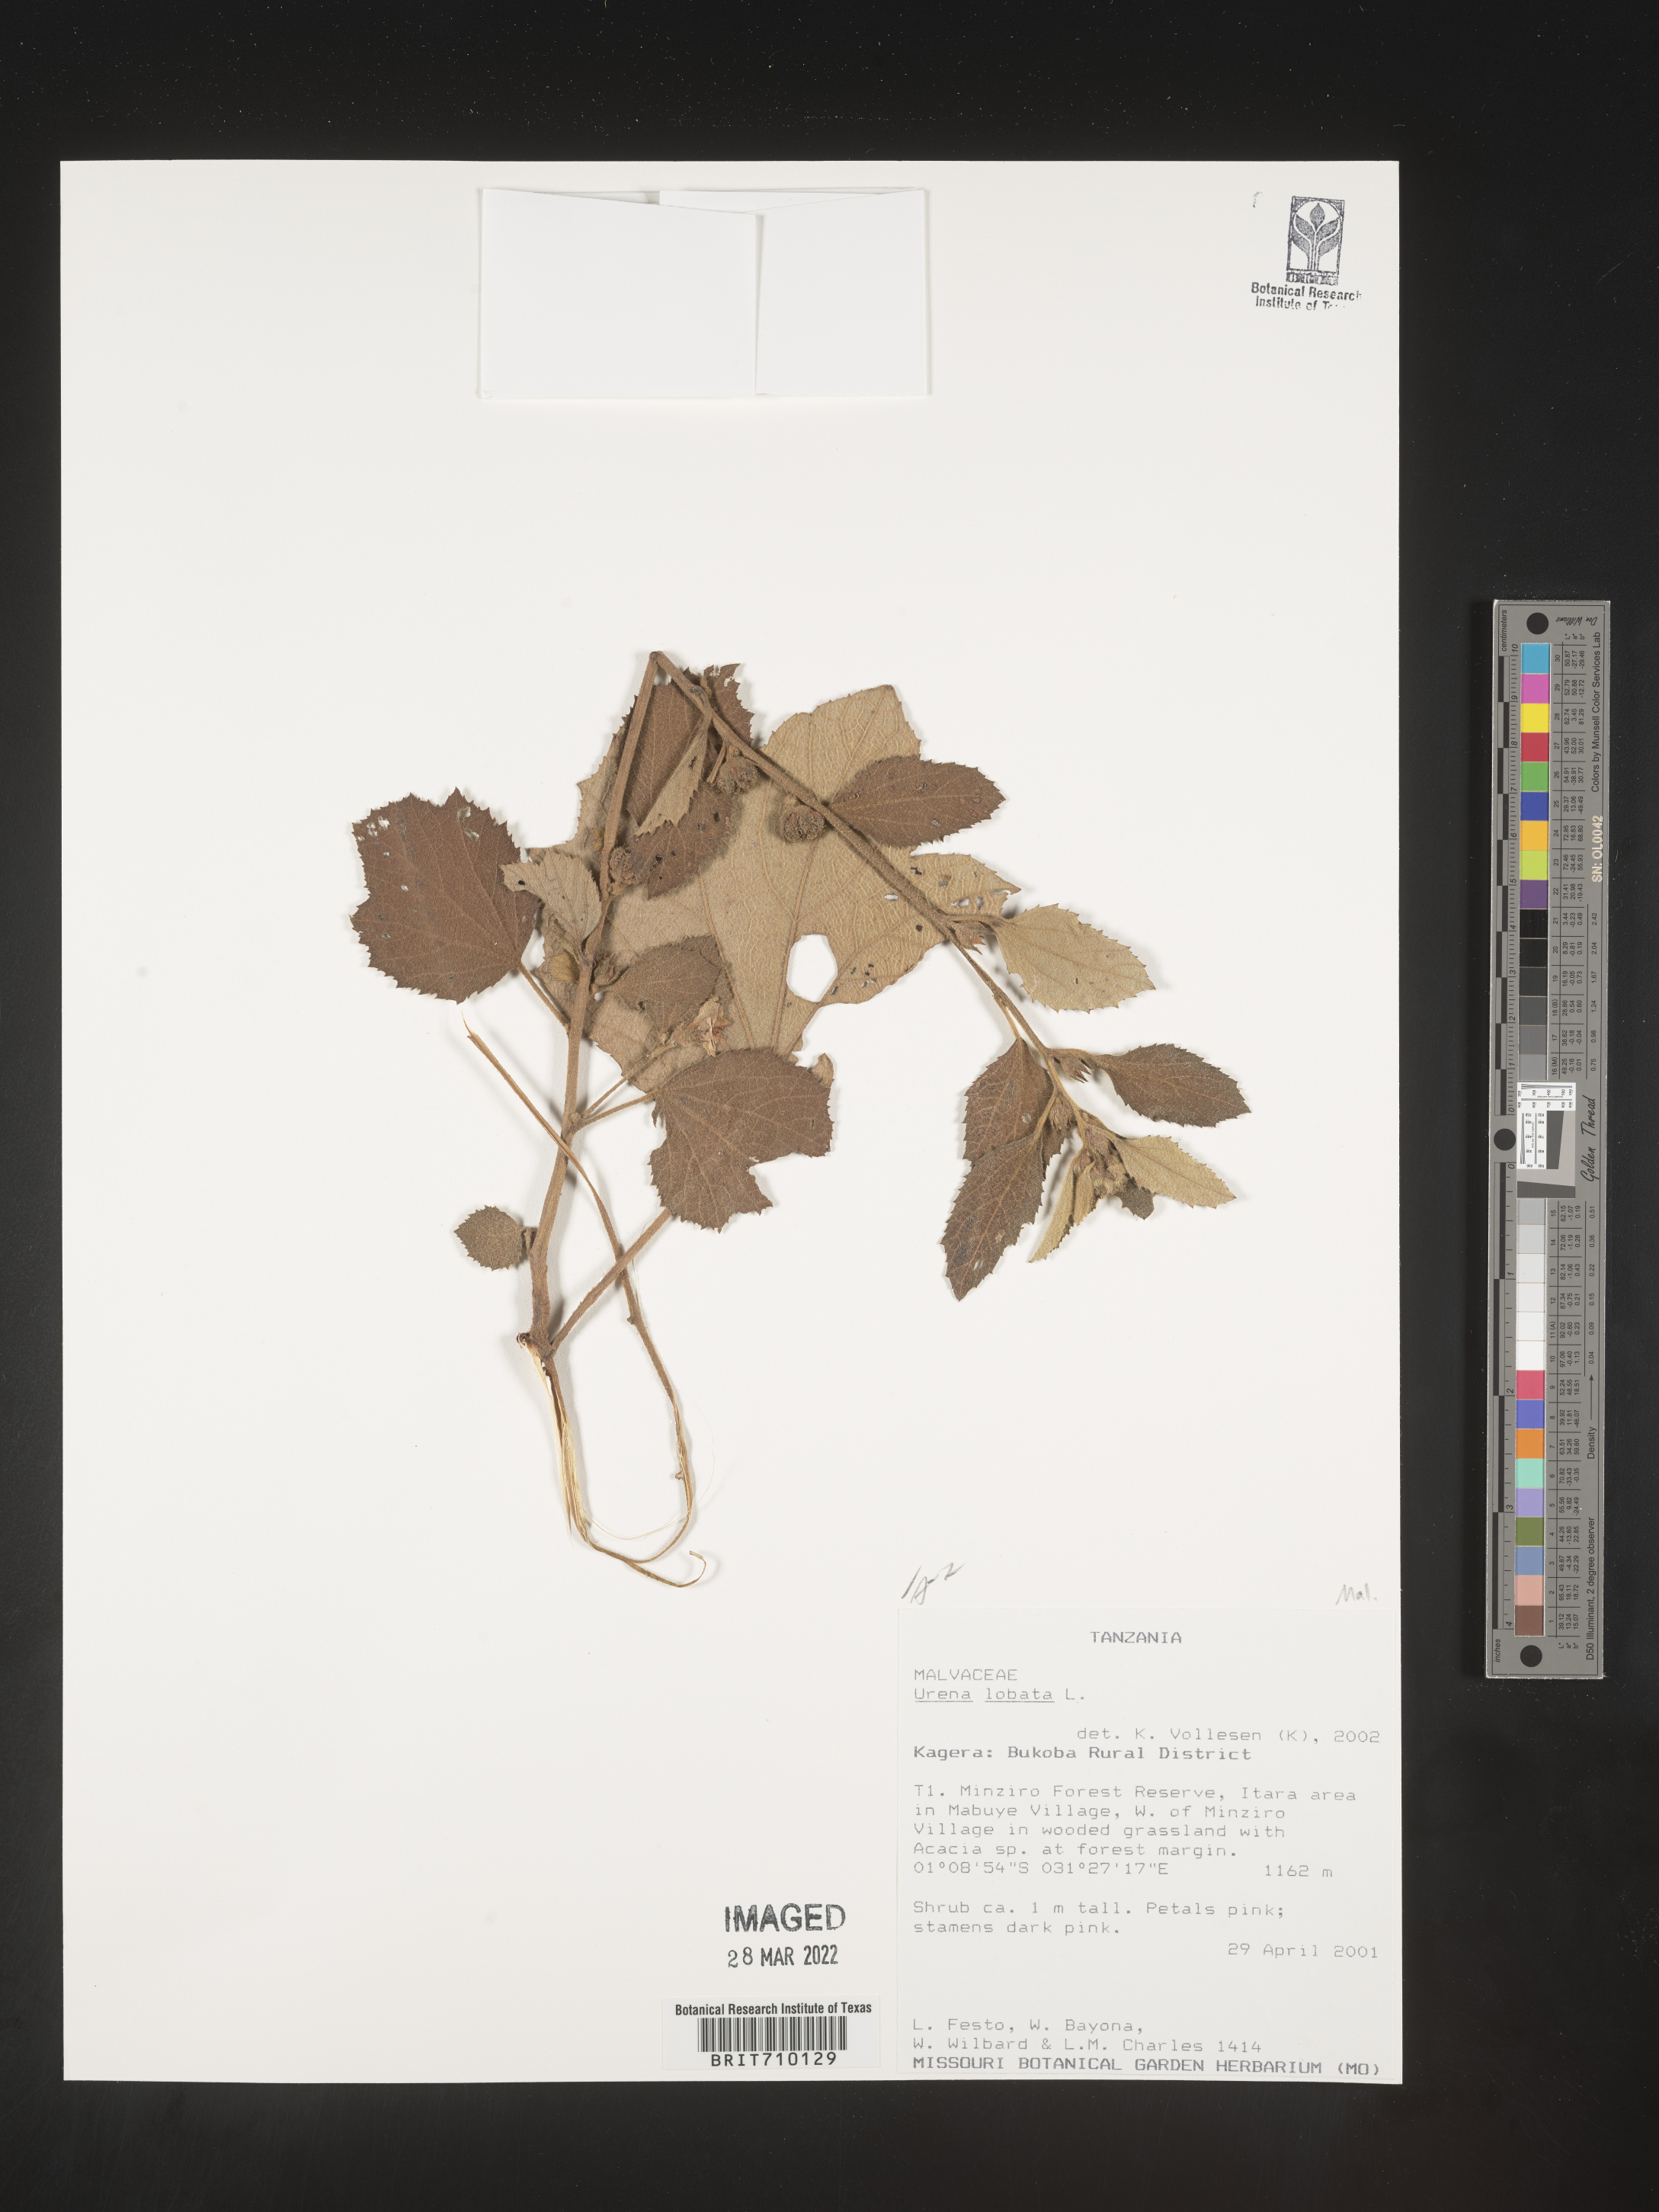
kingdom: Plantae
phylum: Tracheophyta
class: Magnoliopsida
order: Malvales
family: Malvaceae
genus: Urena
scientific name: Urena
